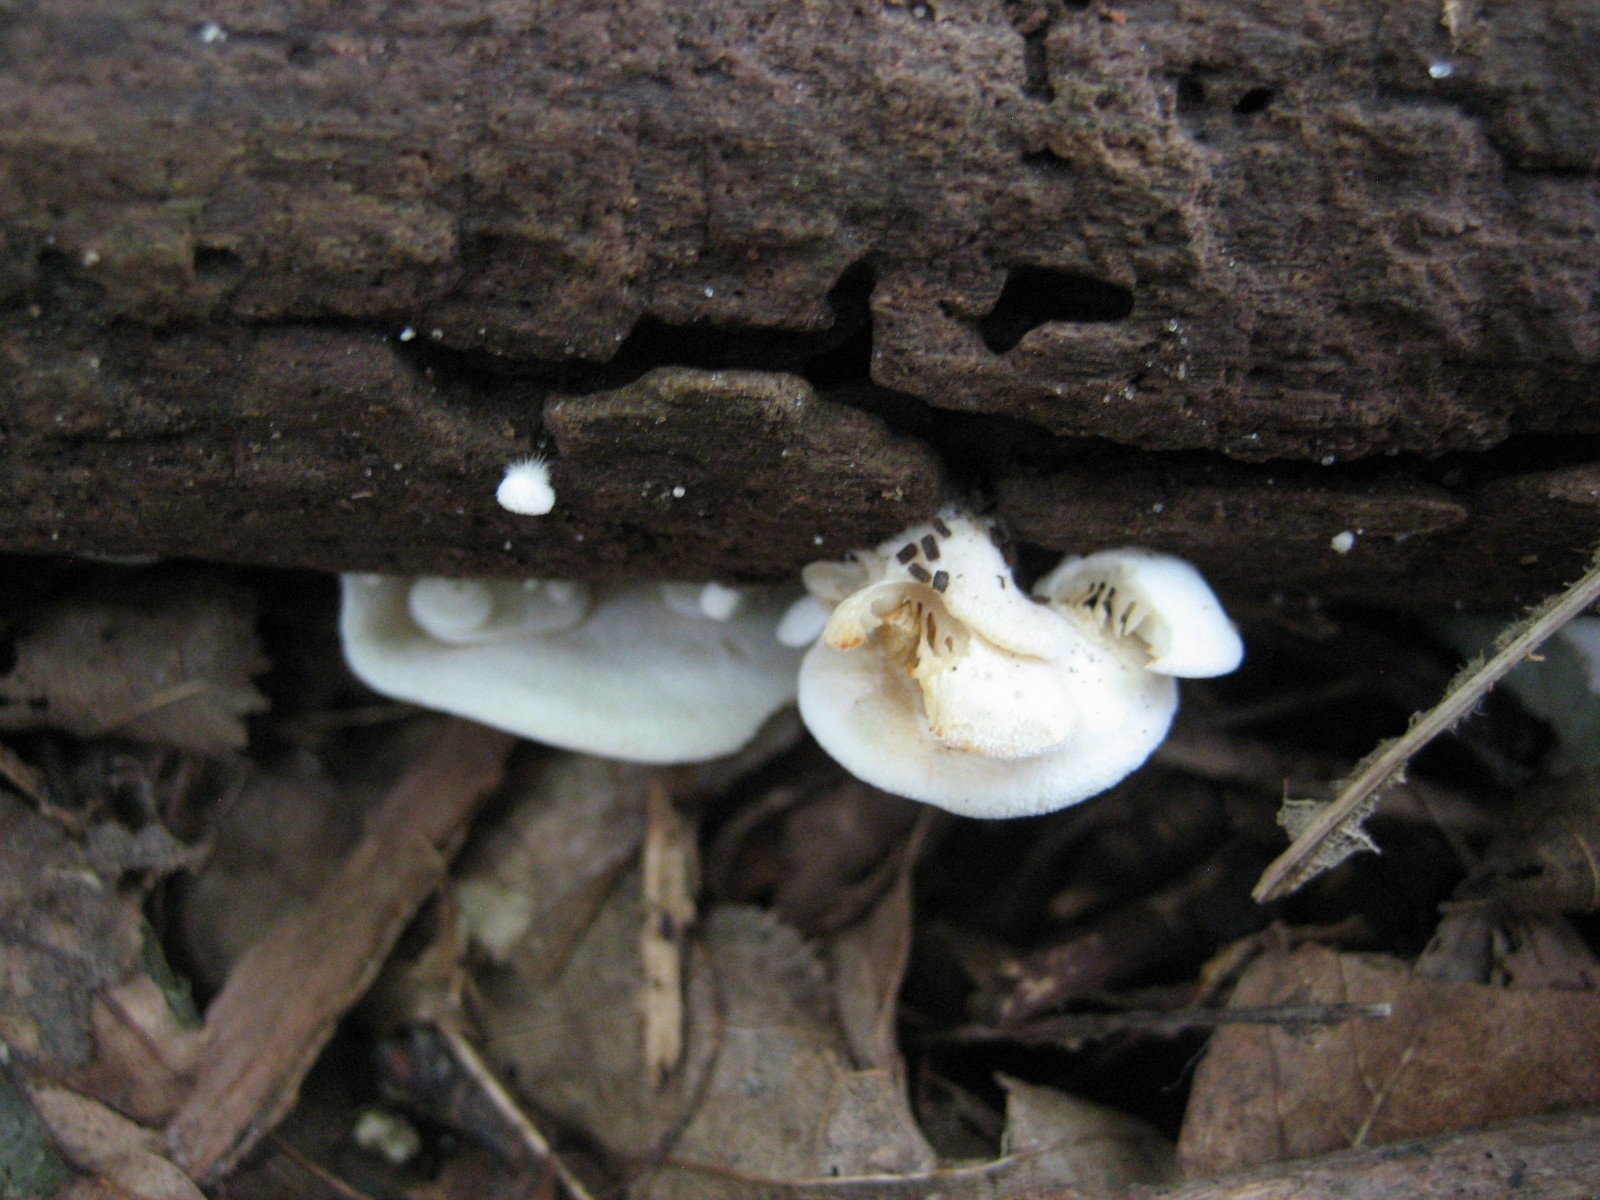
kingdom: Fungi
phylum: Basidiomycota
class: Agaricomycetes
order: Agaricales
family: Crepidotaceae
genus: Crepidotus
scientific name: Crepidotus
